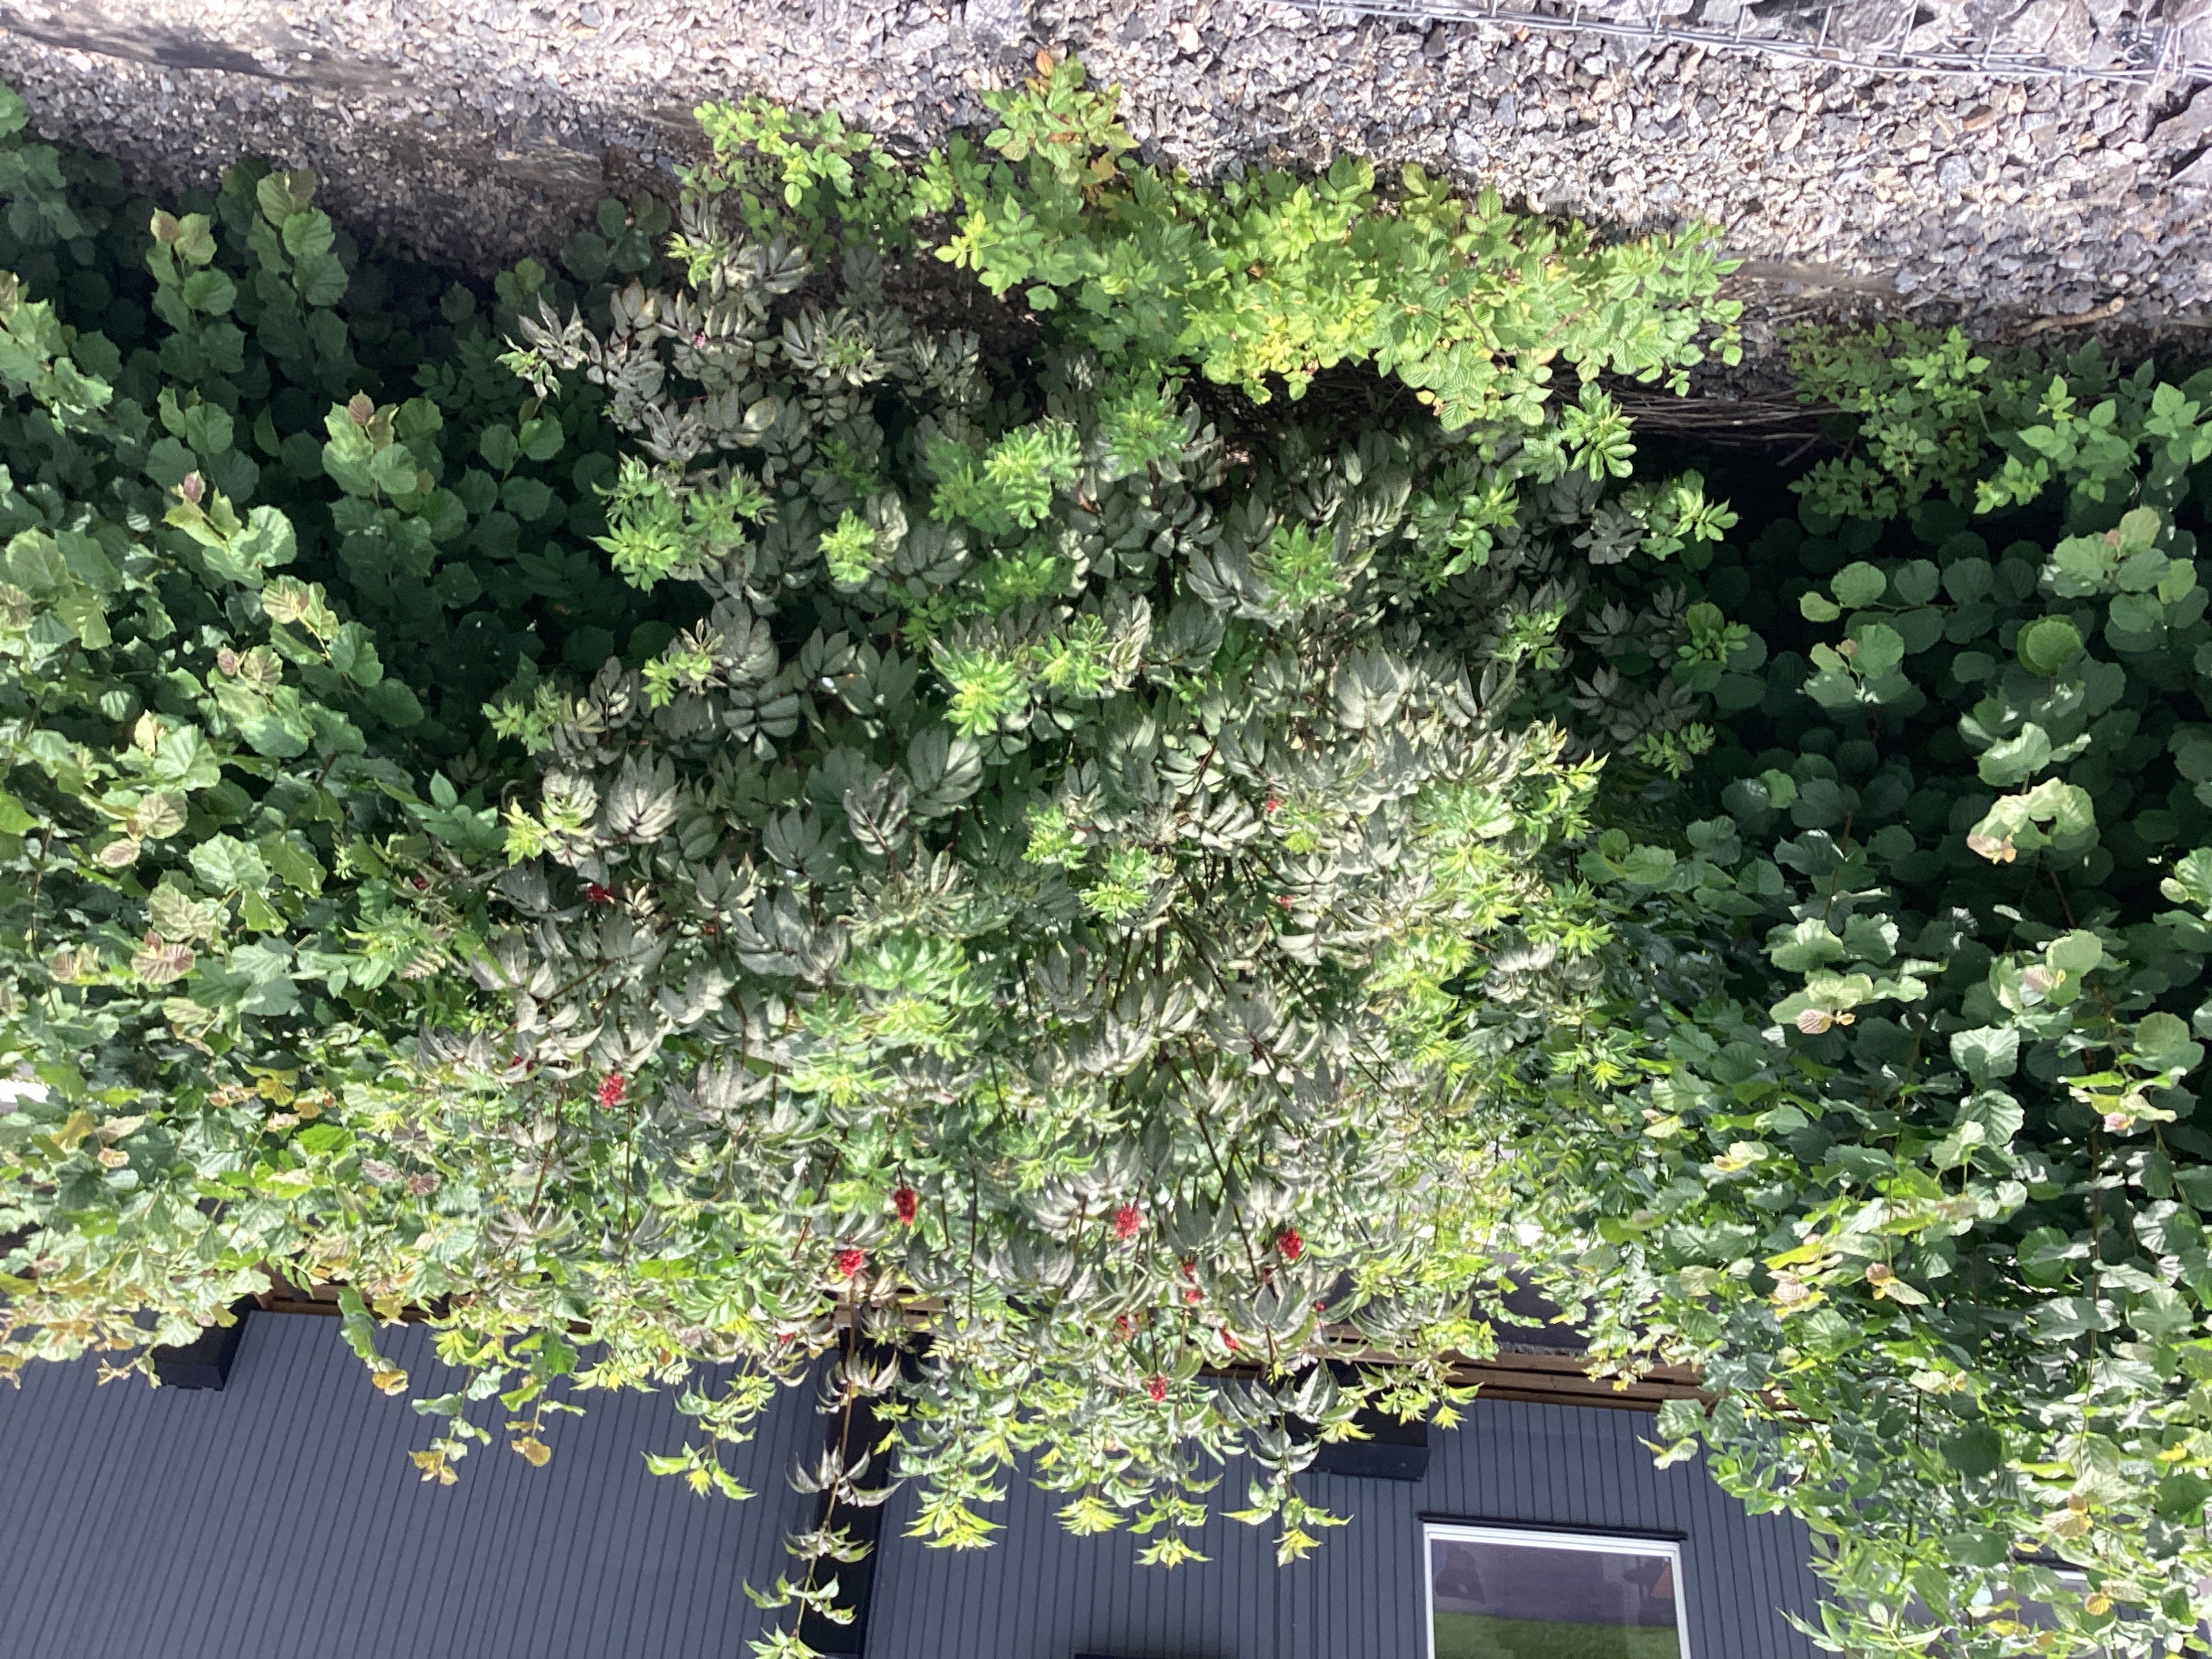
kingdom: Plantae
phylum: Tracheophyta
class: Magnoliopsida
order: Dipsacales
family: Viburnaceae
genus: Sambucus
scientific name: Sambucus racemosa
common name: rødhyll
